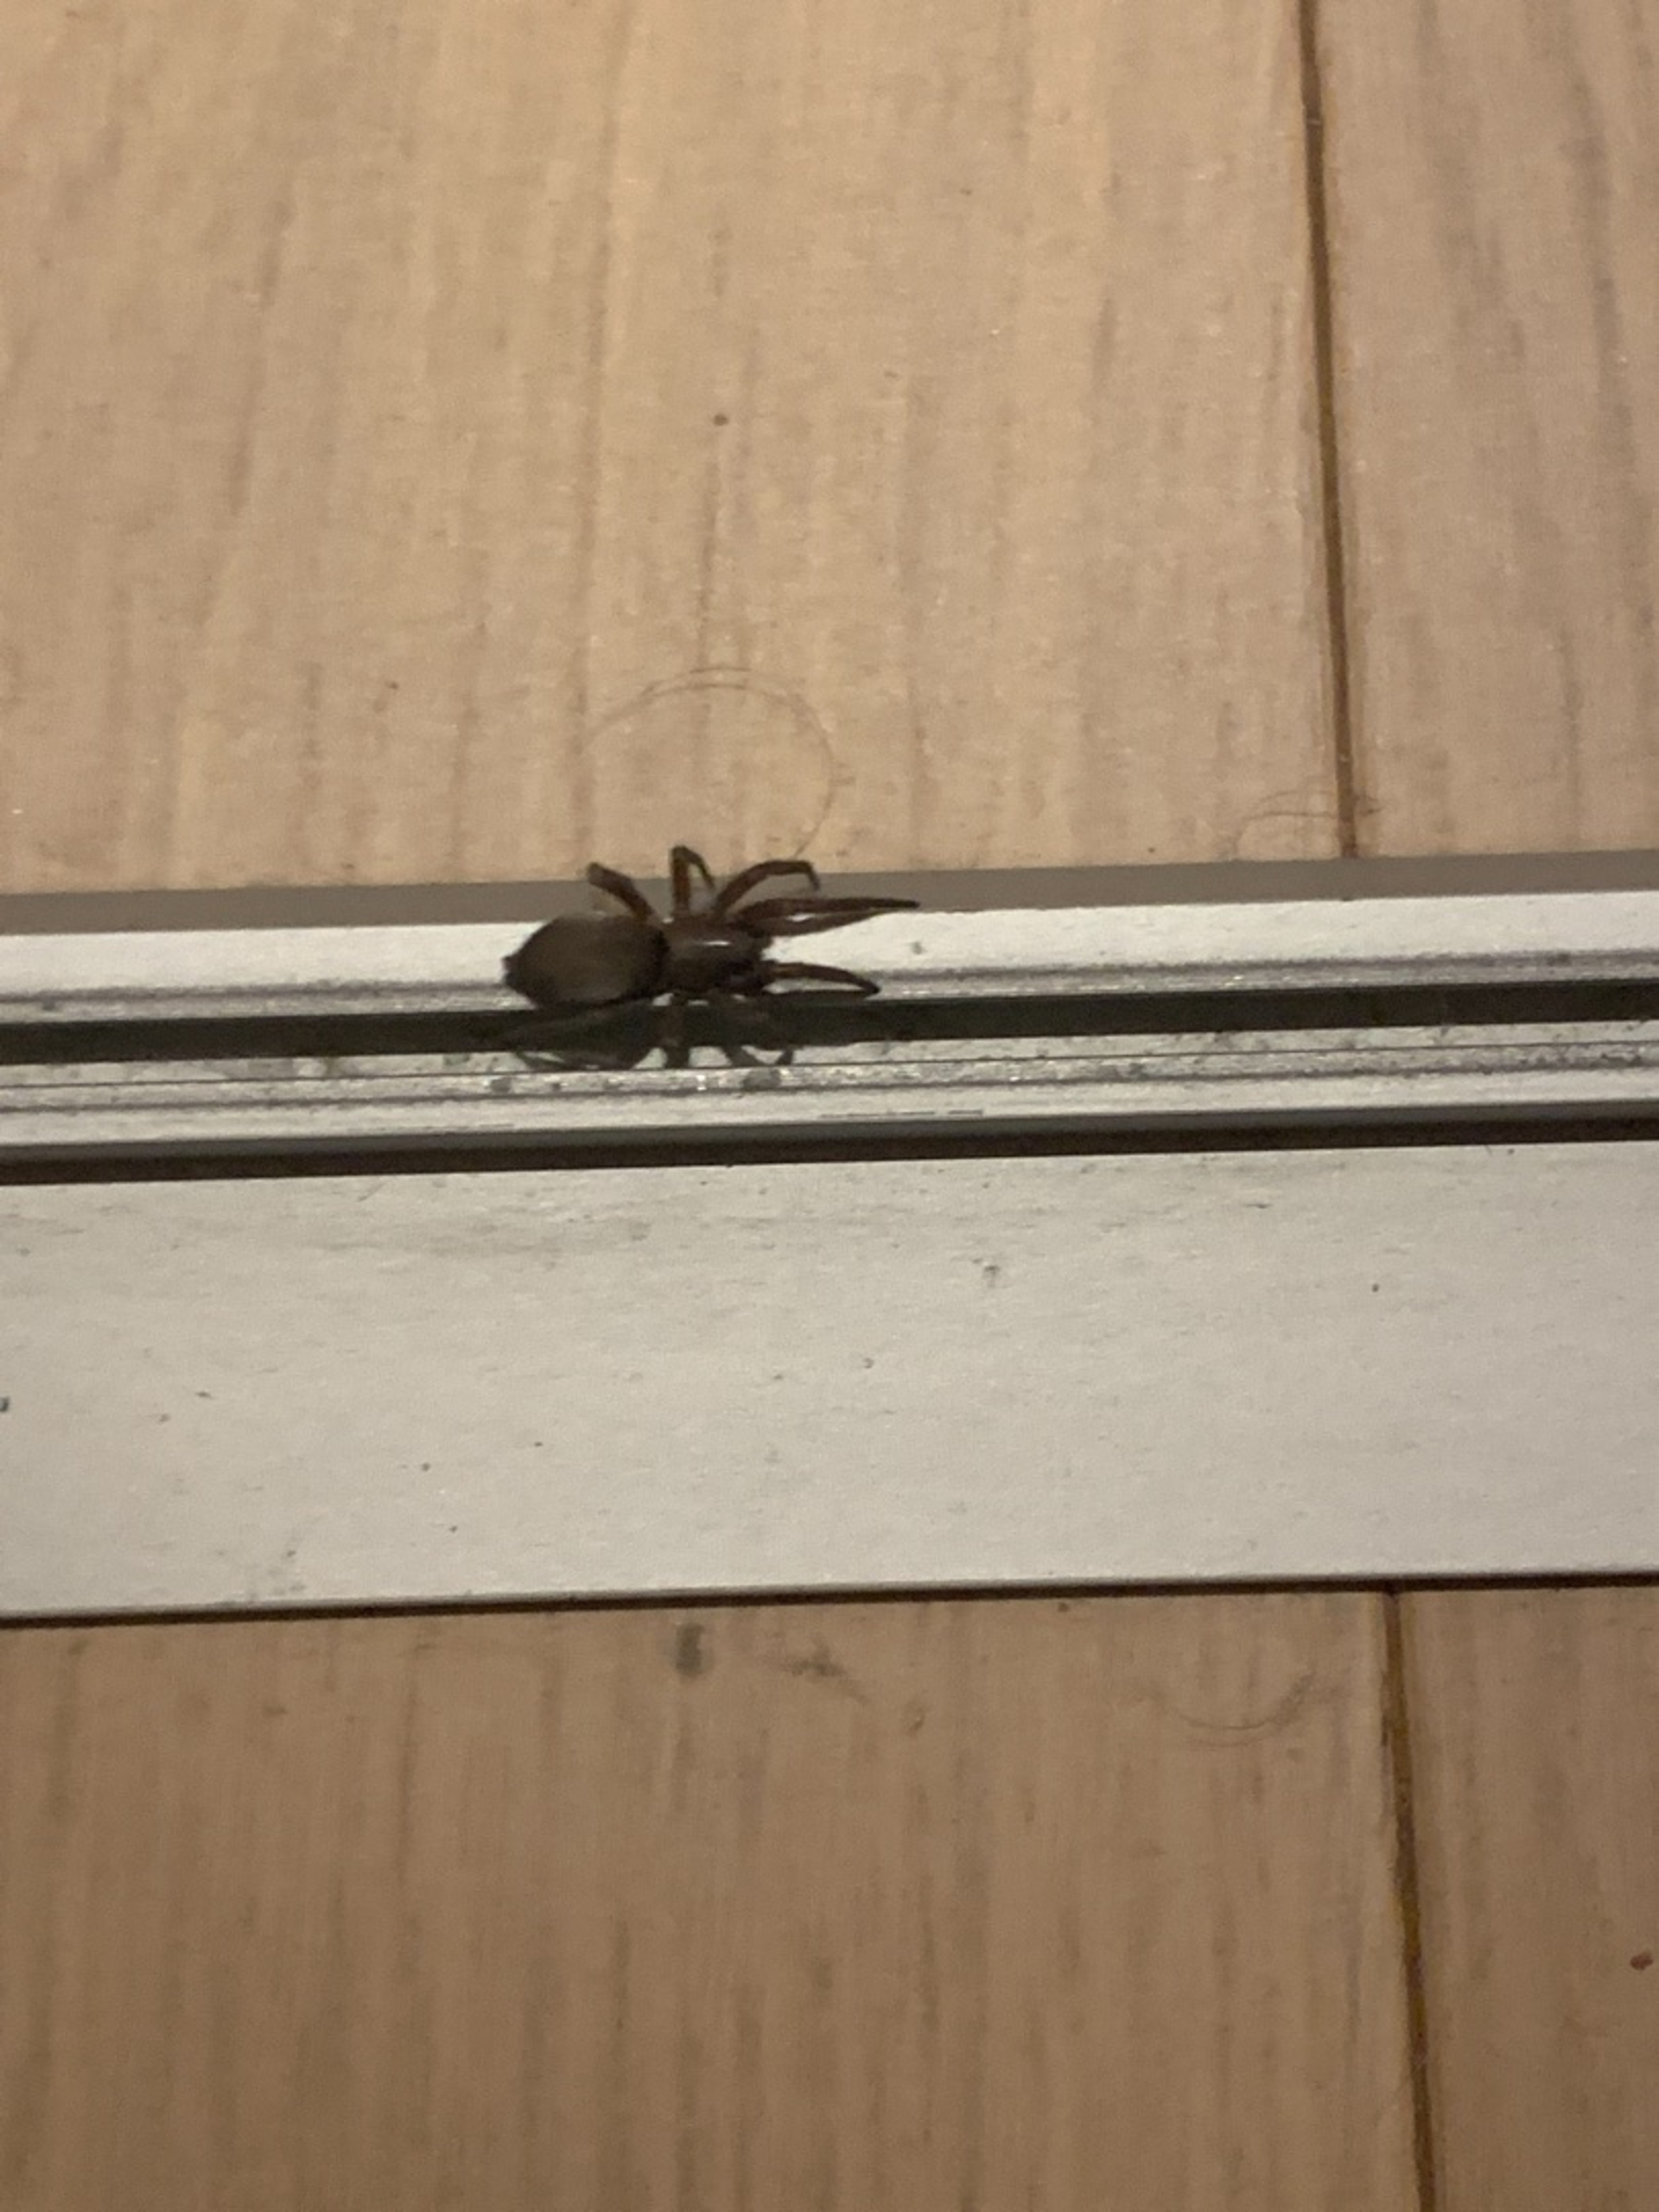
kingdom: Animalia
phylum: Arthropoda
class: Arachnida
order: Araneae
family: Gnaphosidae
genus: Scotophaeus
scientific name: Scotophaeus
